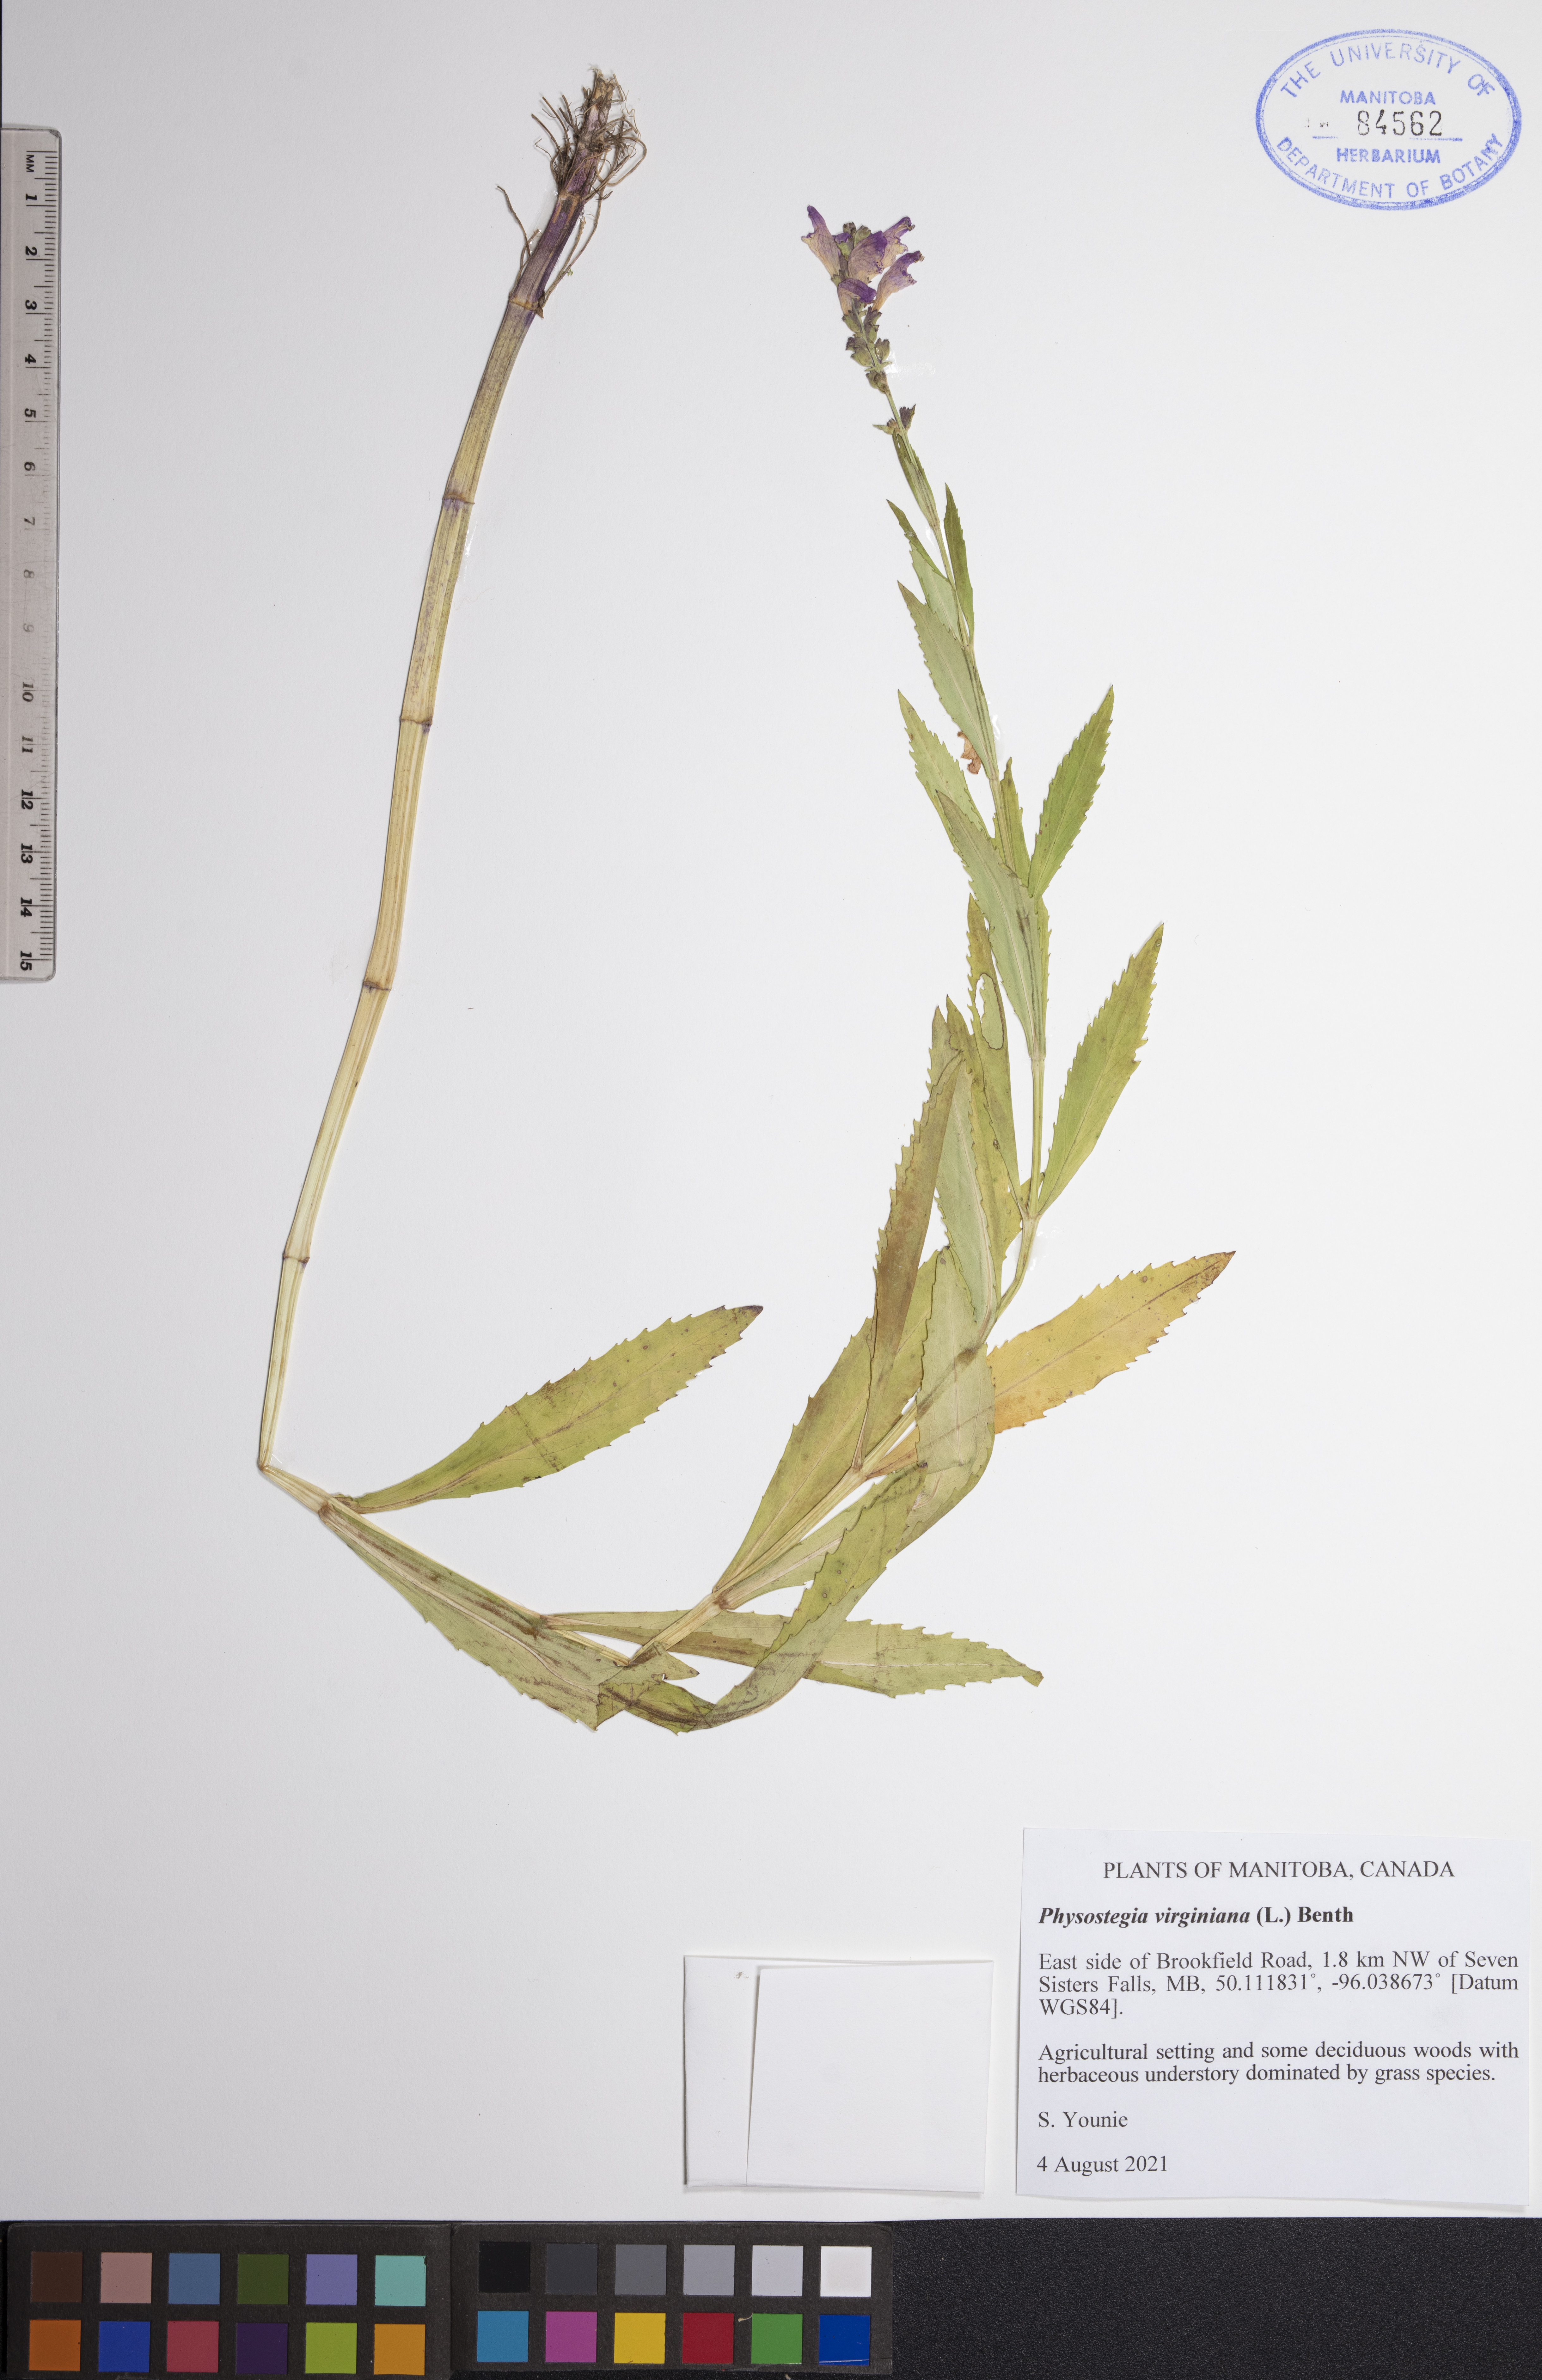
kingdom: Plantae
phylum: Tracheophyta
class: Magnoliopsida
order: Lamiales
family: Lamiaceae
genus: Physostegia
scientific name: Physostegia virginiana
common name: Obedient-plant
